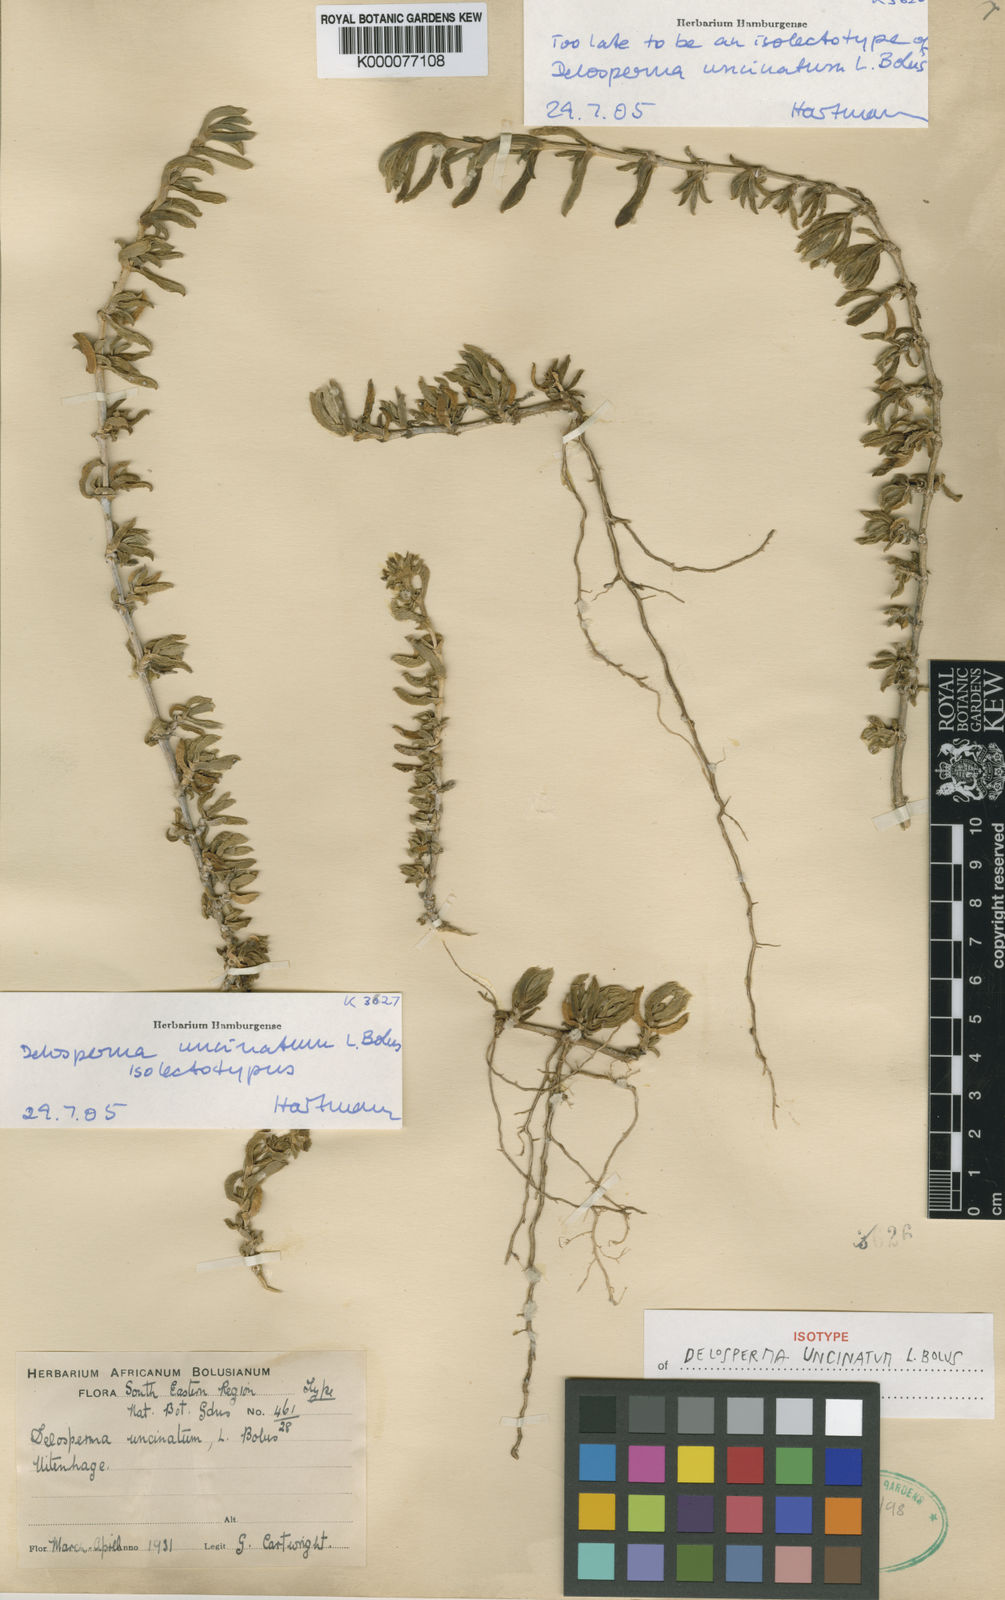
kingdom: Plantae
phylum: Tracheophyta
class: Magnoliopsida
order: Caryophyllales
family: Aizoaceae
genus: Delosperma
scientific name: Delosperma uncinatum
